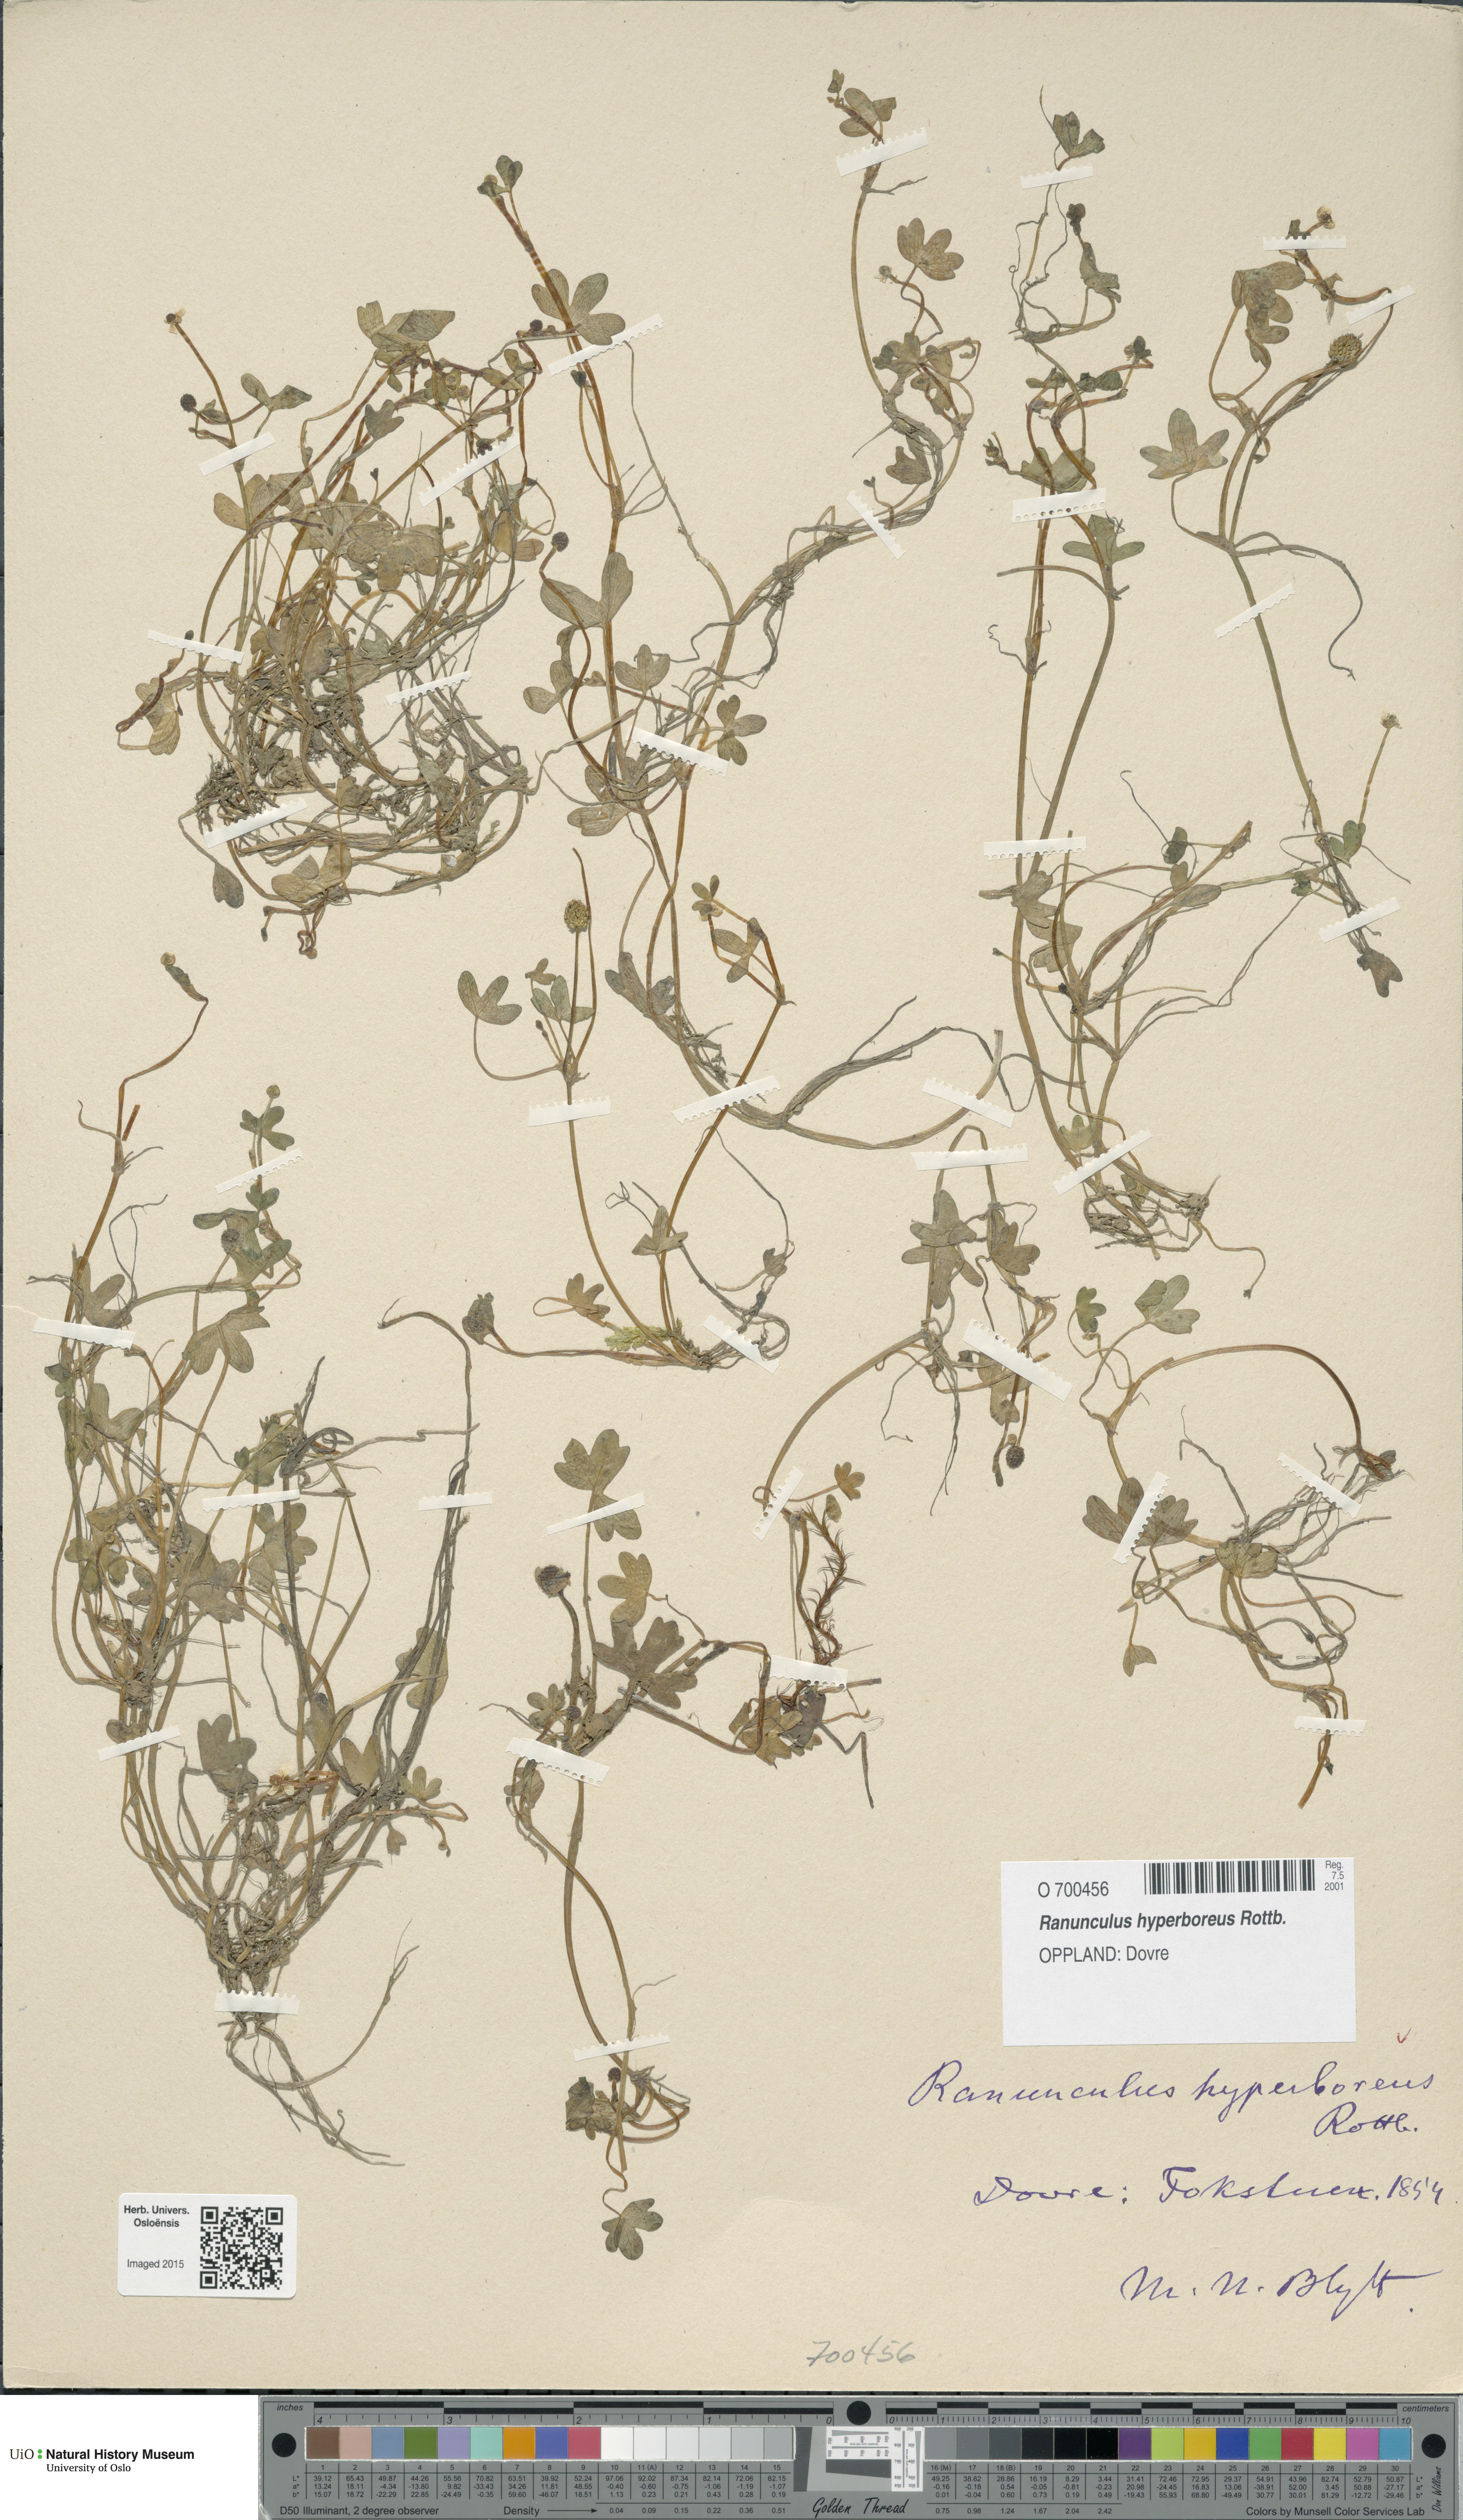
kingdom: Plantae
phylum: Tracheophyta
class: Magnoliopsida
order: Ranunculales
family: Ranunculaceae
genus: Ranunculus
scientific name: Ranunculus hyperboreus
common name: Arctic buttercup
